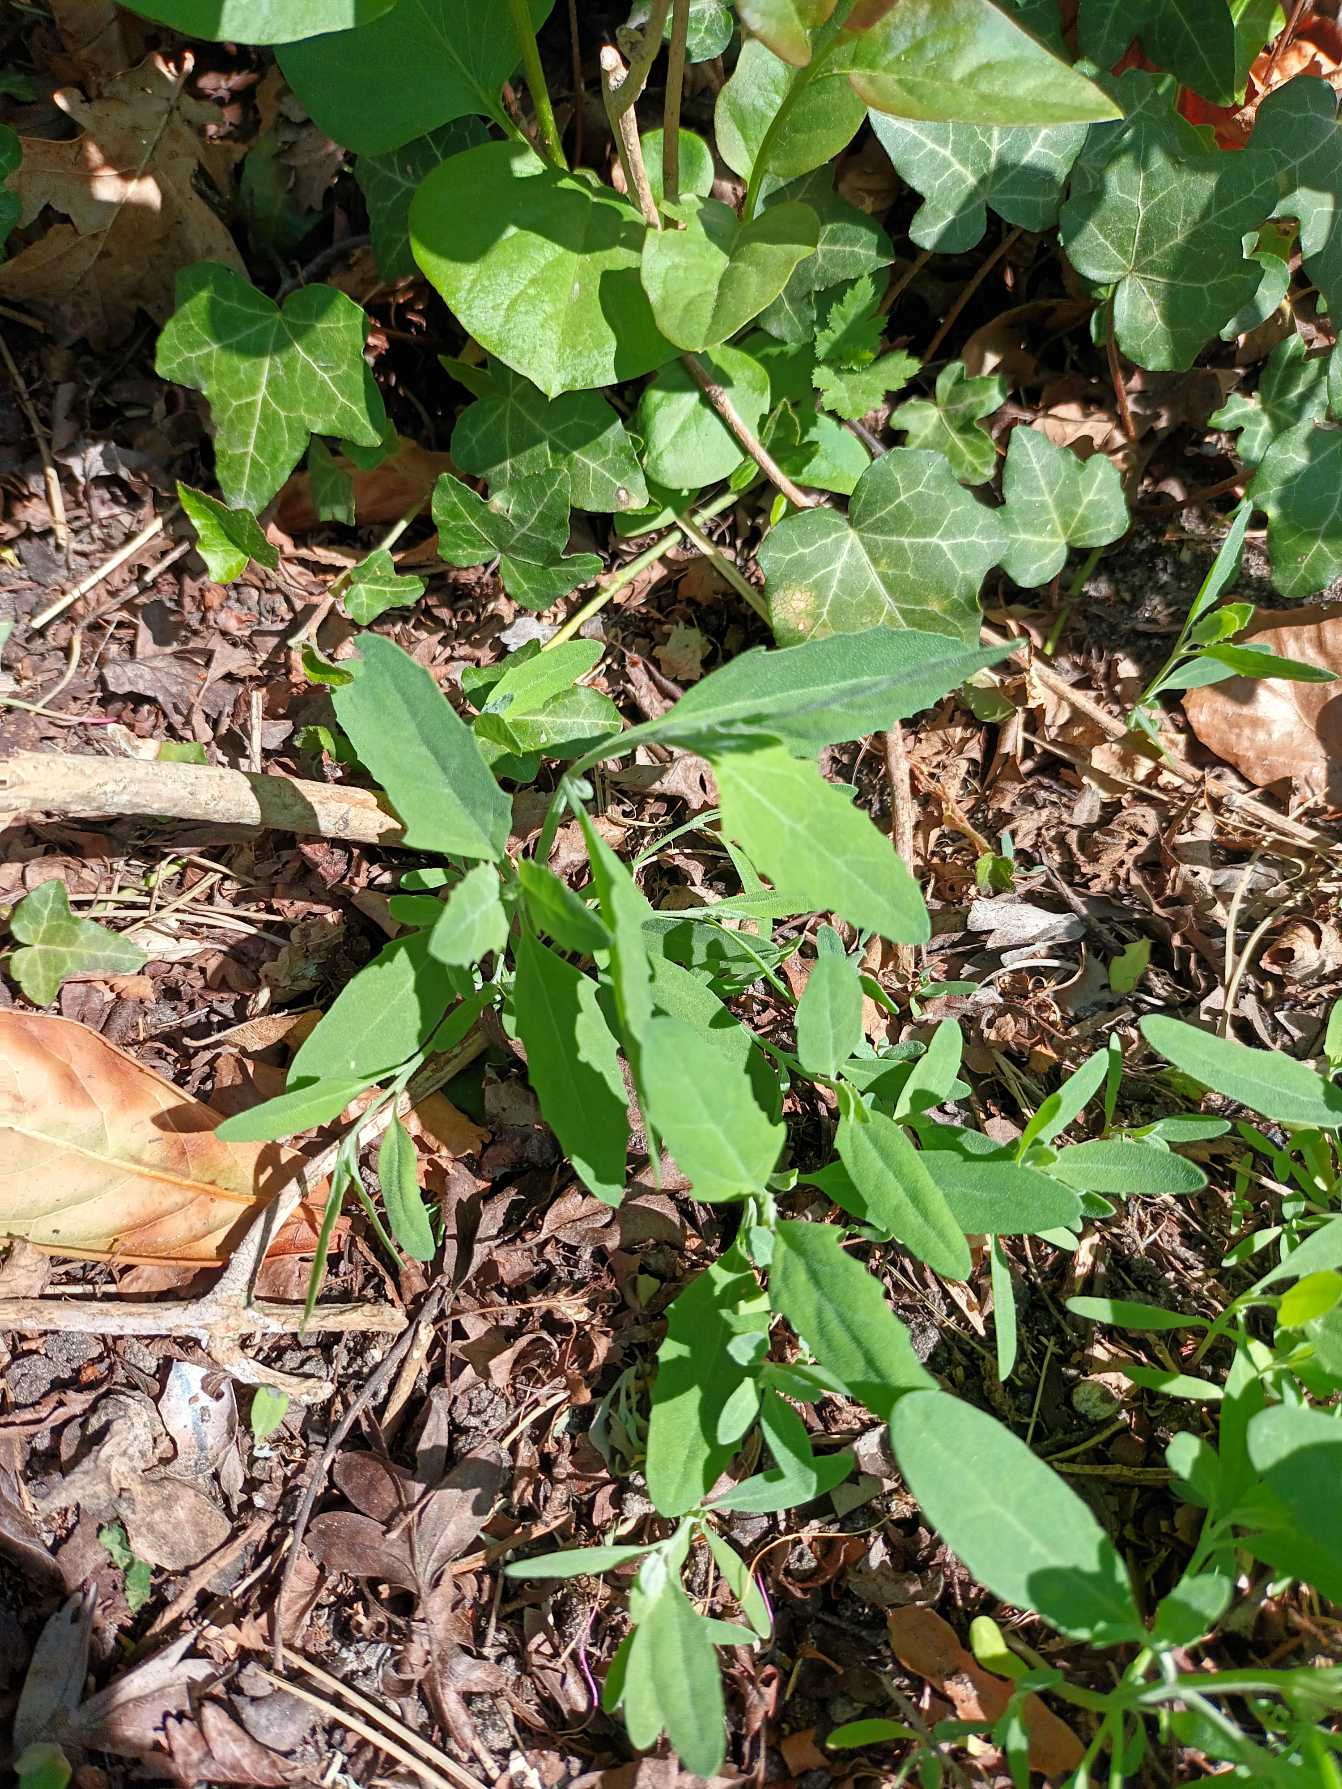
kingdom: Plantae
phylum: Tracheophyta
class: Magnoliopsida
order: Caryophyllales
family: Amaranthaceae
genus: Atriplex
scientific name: Atriplex patula
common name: Svine-mælde
